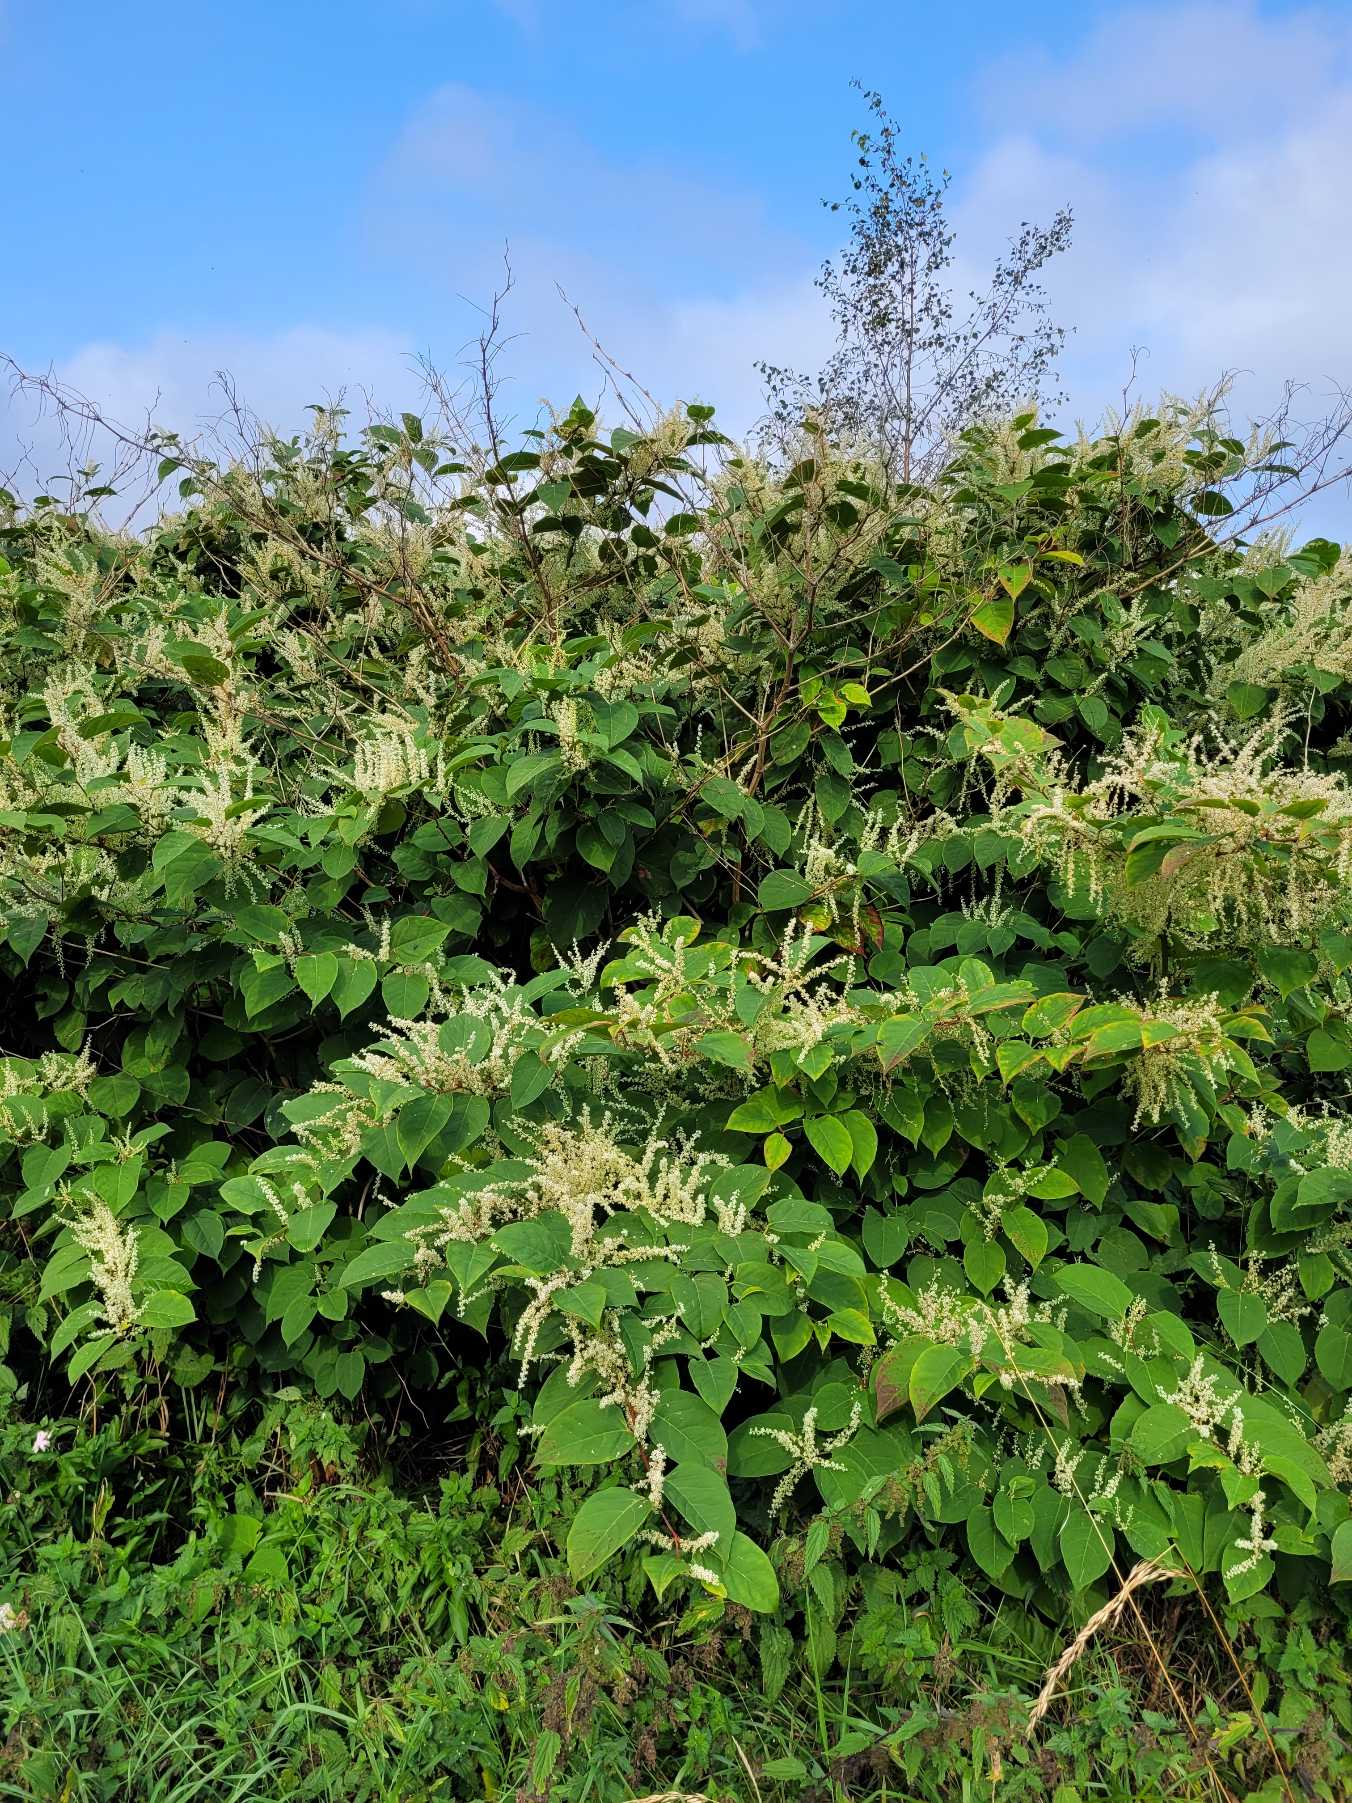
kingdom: Plantae
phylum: Tracheophyta
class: Magnoliopsida
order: Caryophyllales
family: Polygonaceae
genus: Reynoutria
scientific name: Reynoutria japonica
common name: Japan-pileurt
